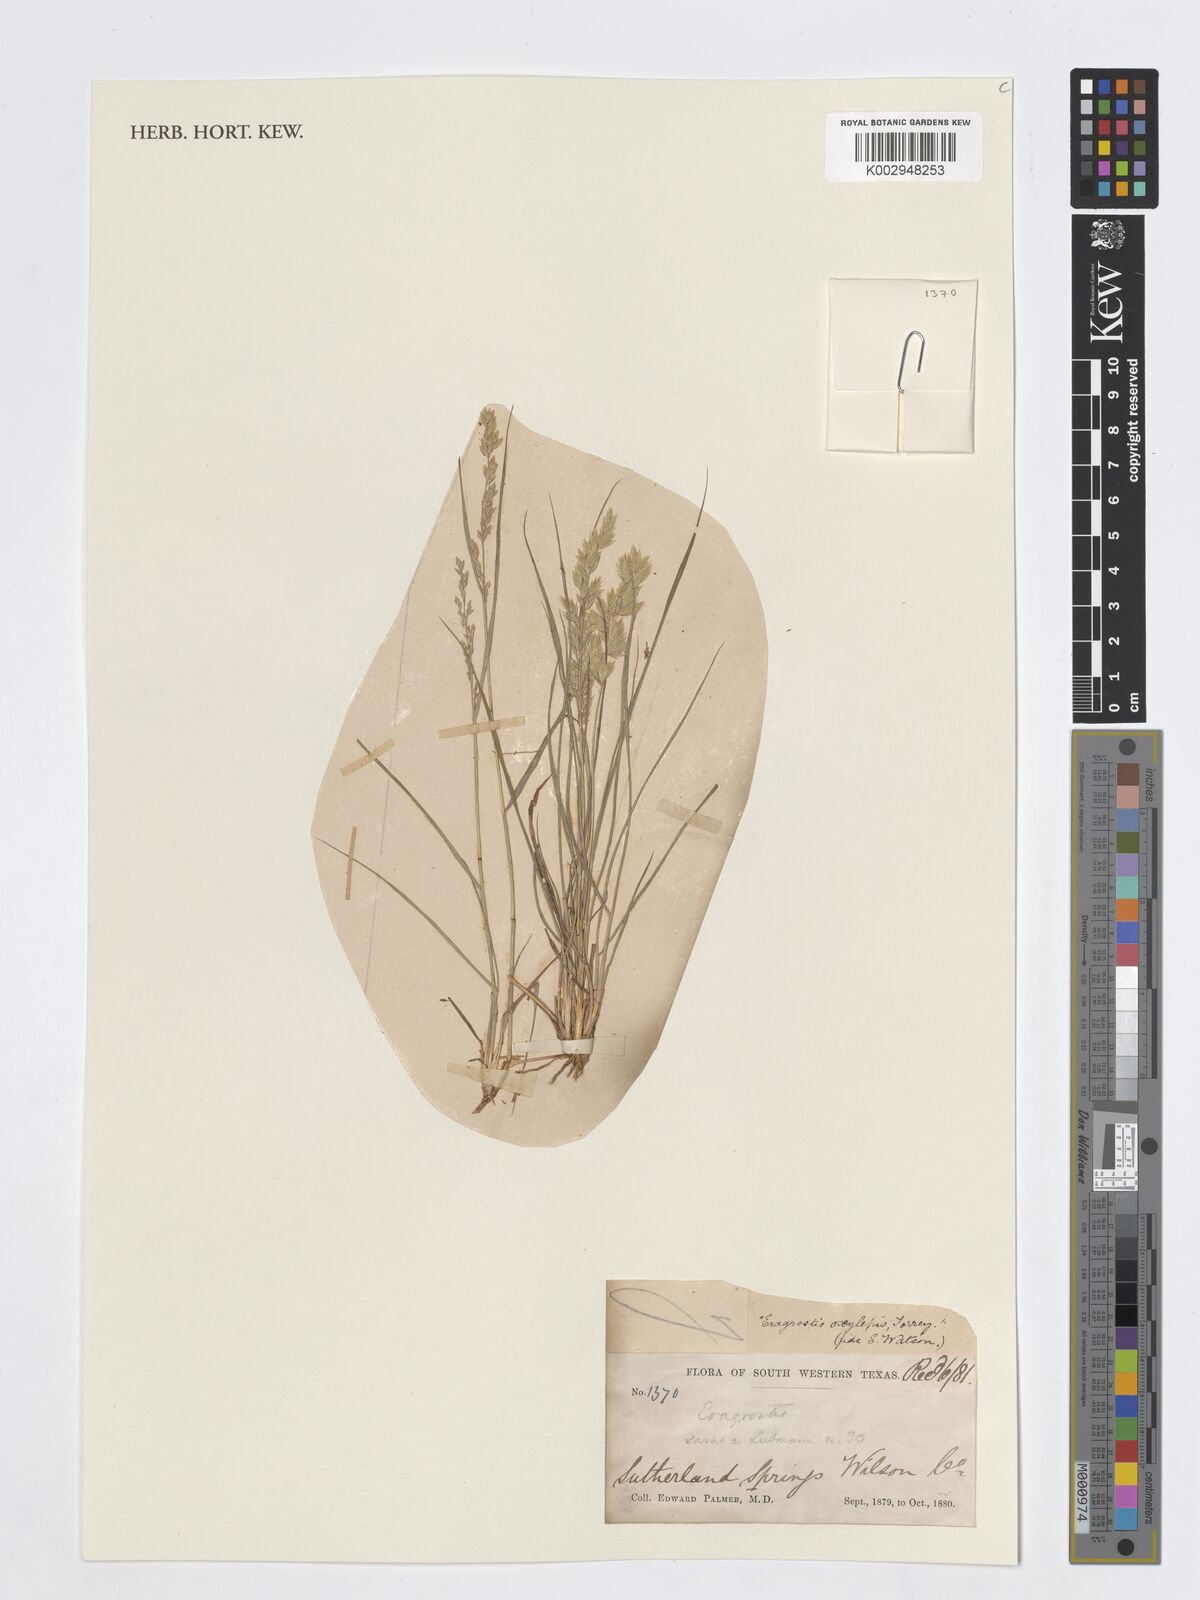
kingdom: Plantae
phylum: Tracheophyta
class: Liliopsida
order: Poales
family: Poaceae
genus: Eragrostis
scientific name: Eragrostis secundiflora
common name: Red love grass
